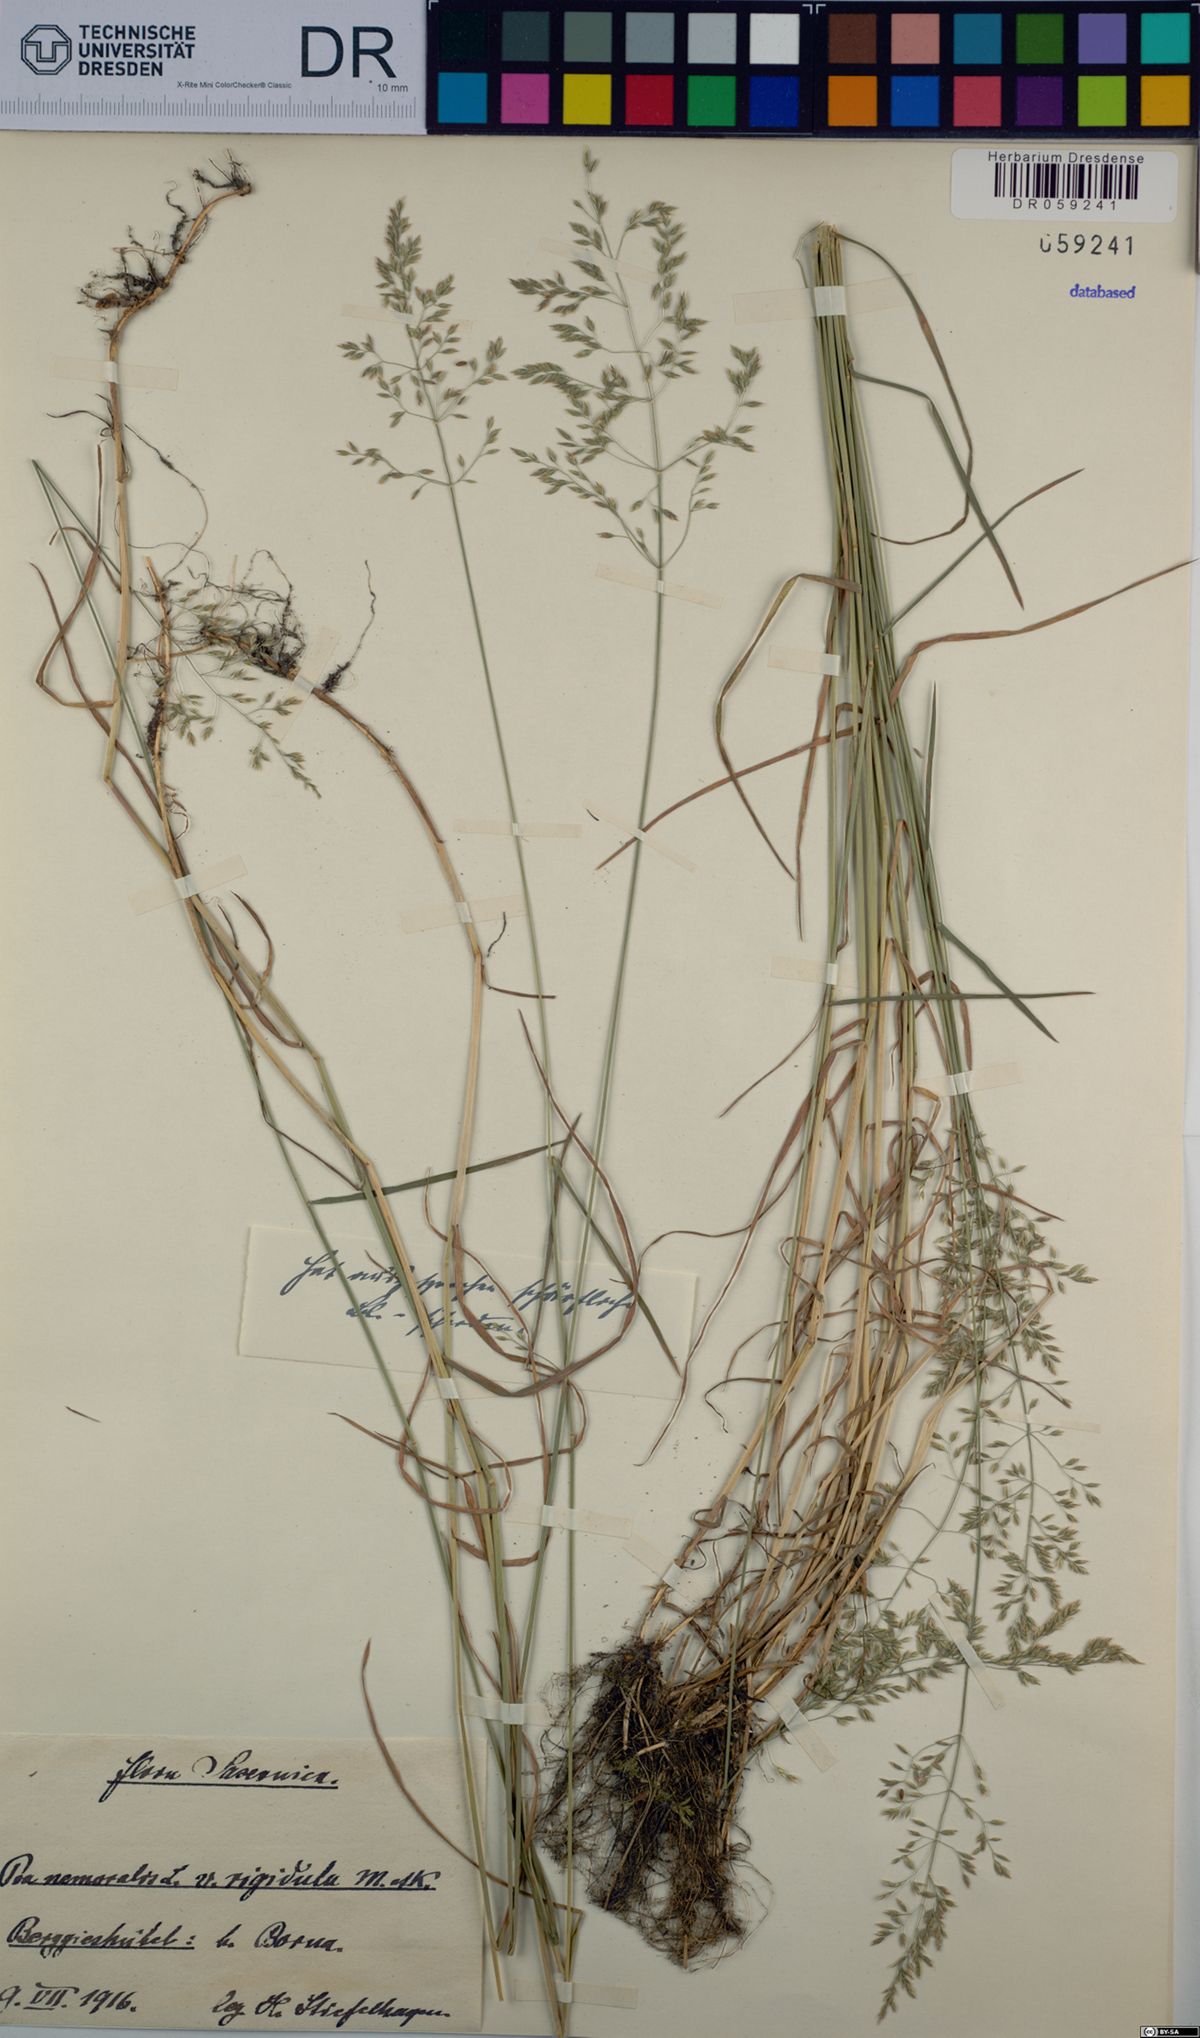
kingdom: Plantae
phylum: Tracheophyta
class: Liliopsida
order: Poales
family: Poaceae
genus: Poa
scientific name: Poa nemoralis
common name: Wood bluegrass
